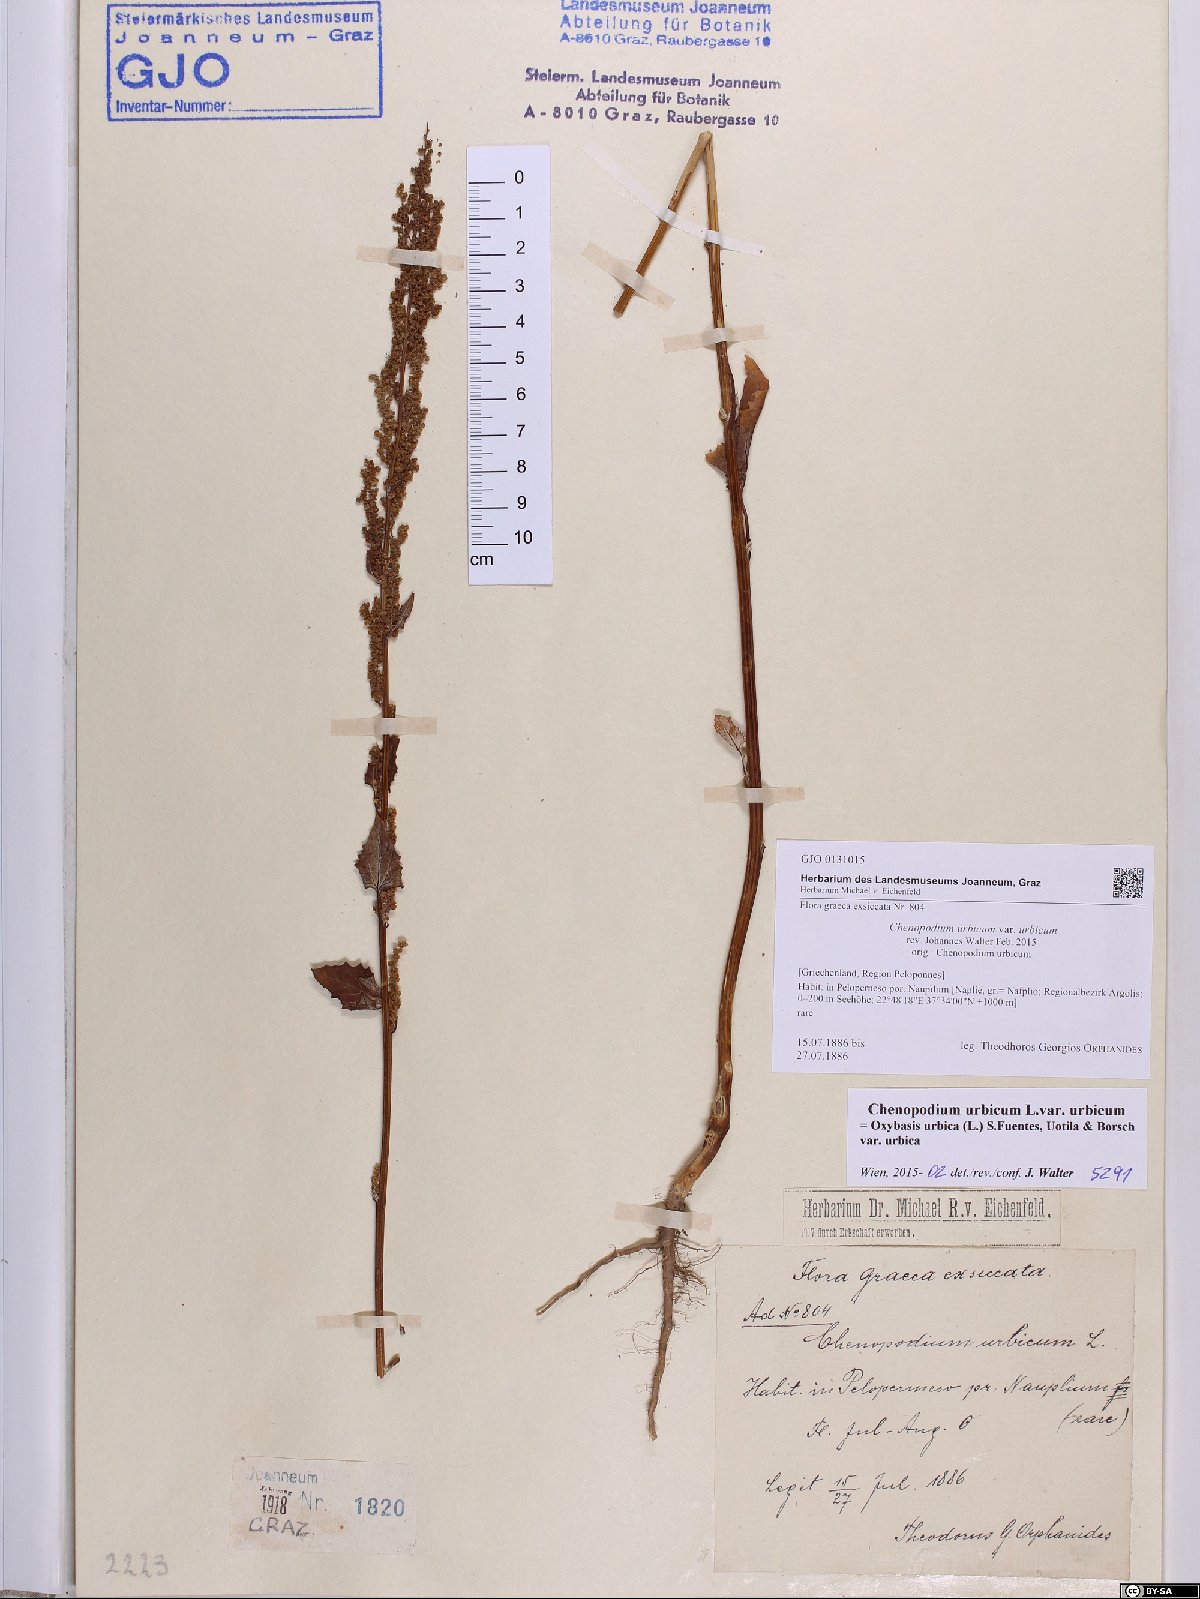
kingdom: Plantae
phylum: Tracheophyta
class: Magnoliopsida
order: Caryophyllales
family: Amaranthaceae
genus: Oxybasis
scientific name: Oxybasis urbica
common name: City goosefoot
